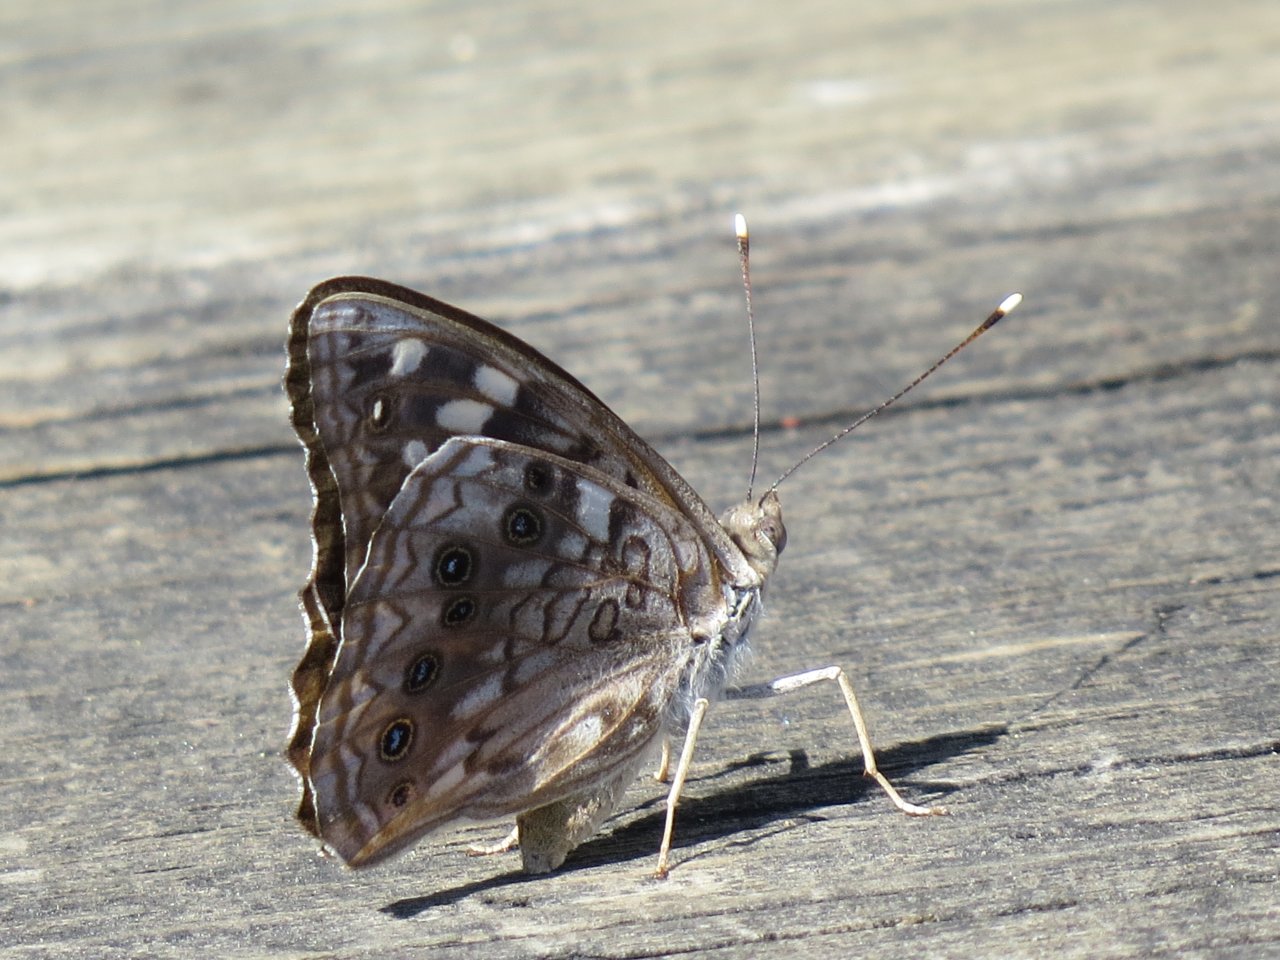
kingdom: Animalia
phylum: Arthropoda
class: Insecta
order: Lepidoptera
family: Nymphalidae
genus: Asterocampa
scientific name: Asterocampa celtis
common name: Hackberry Emperor
